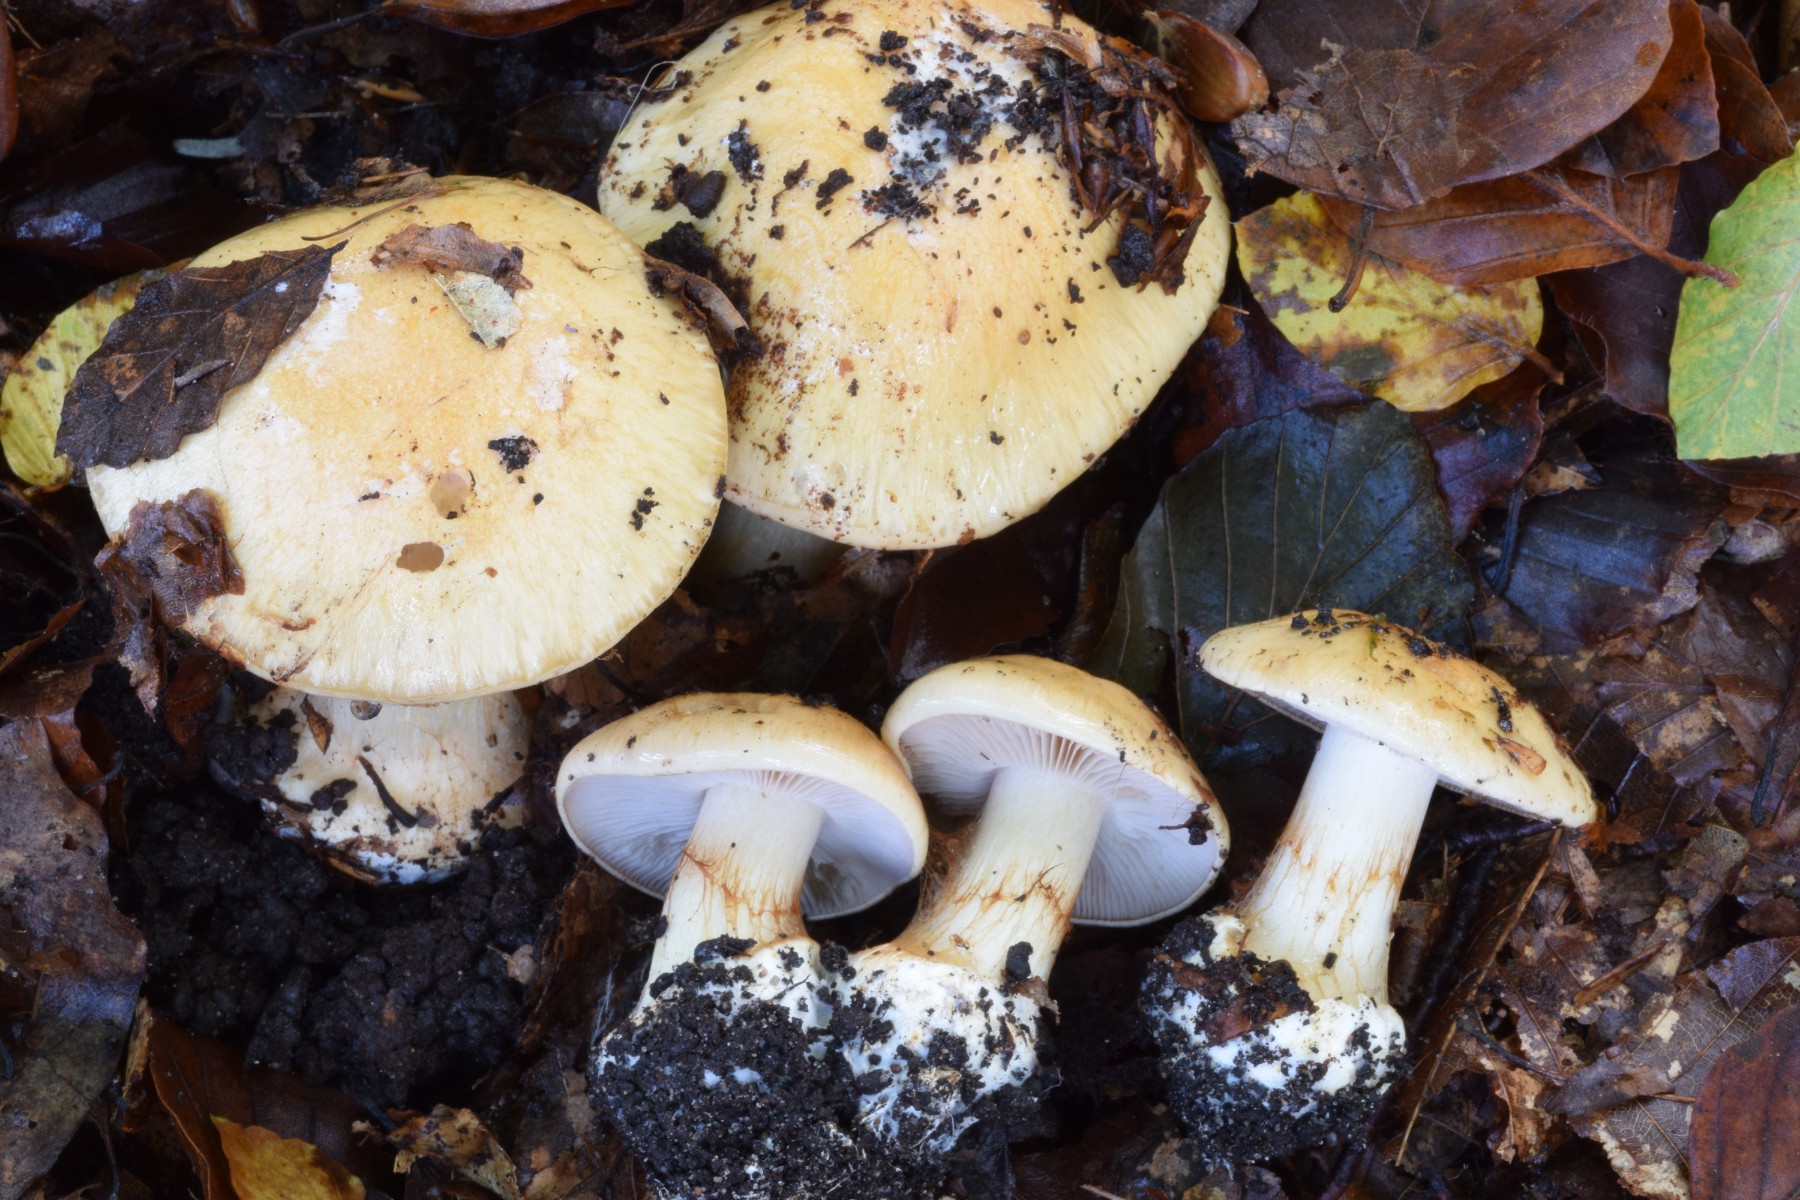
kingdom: Fungi
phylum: Basidiomycota
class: Agaricomycetes
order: Agaricales
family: Cortinariaceae
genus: Phlegmacium
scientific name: Phlegmacium aquilanum
